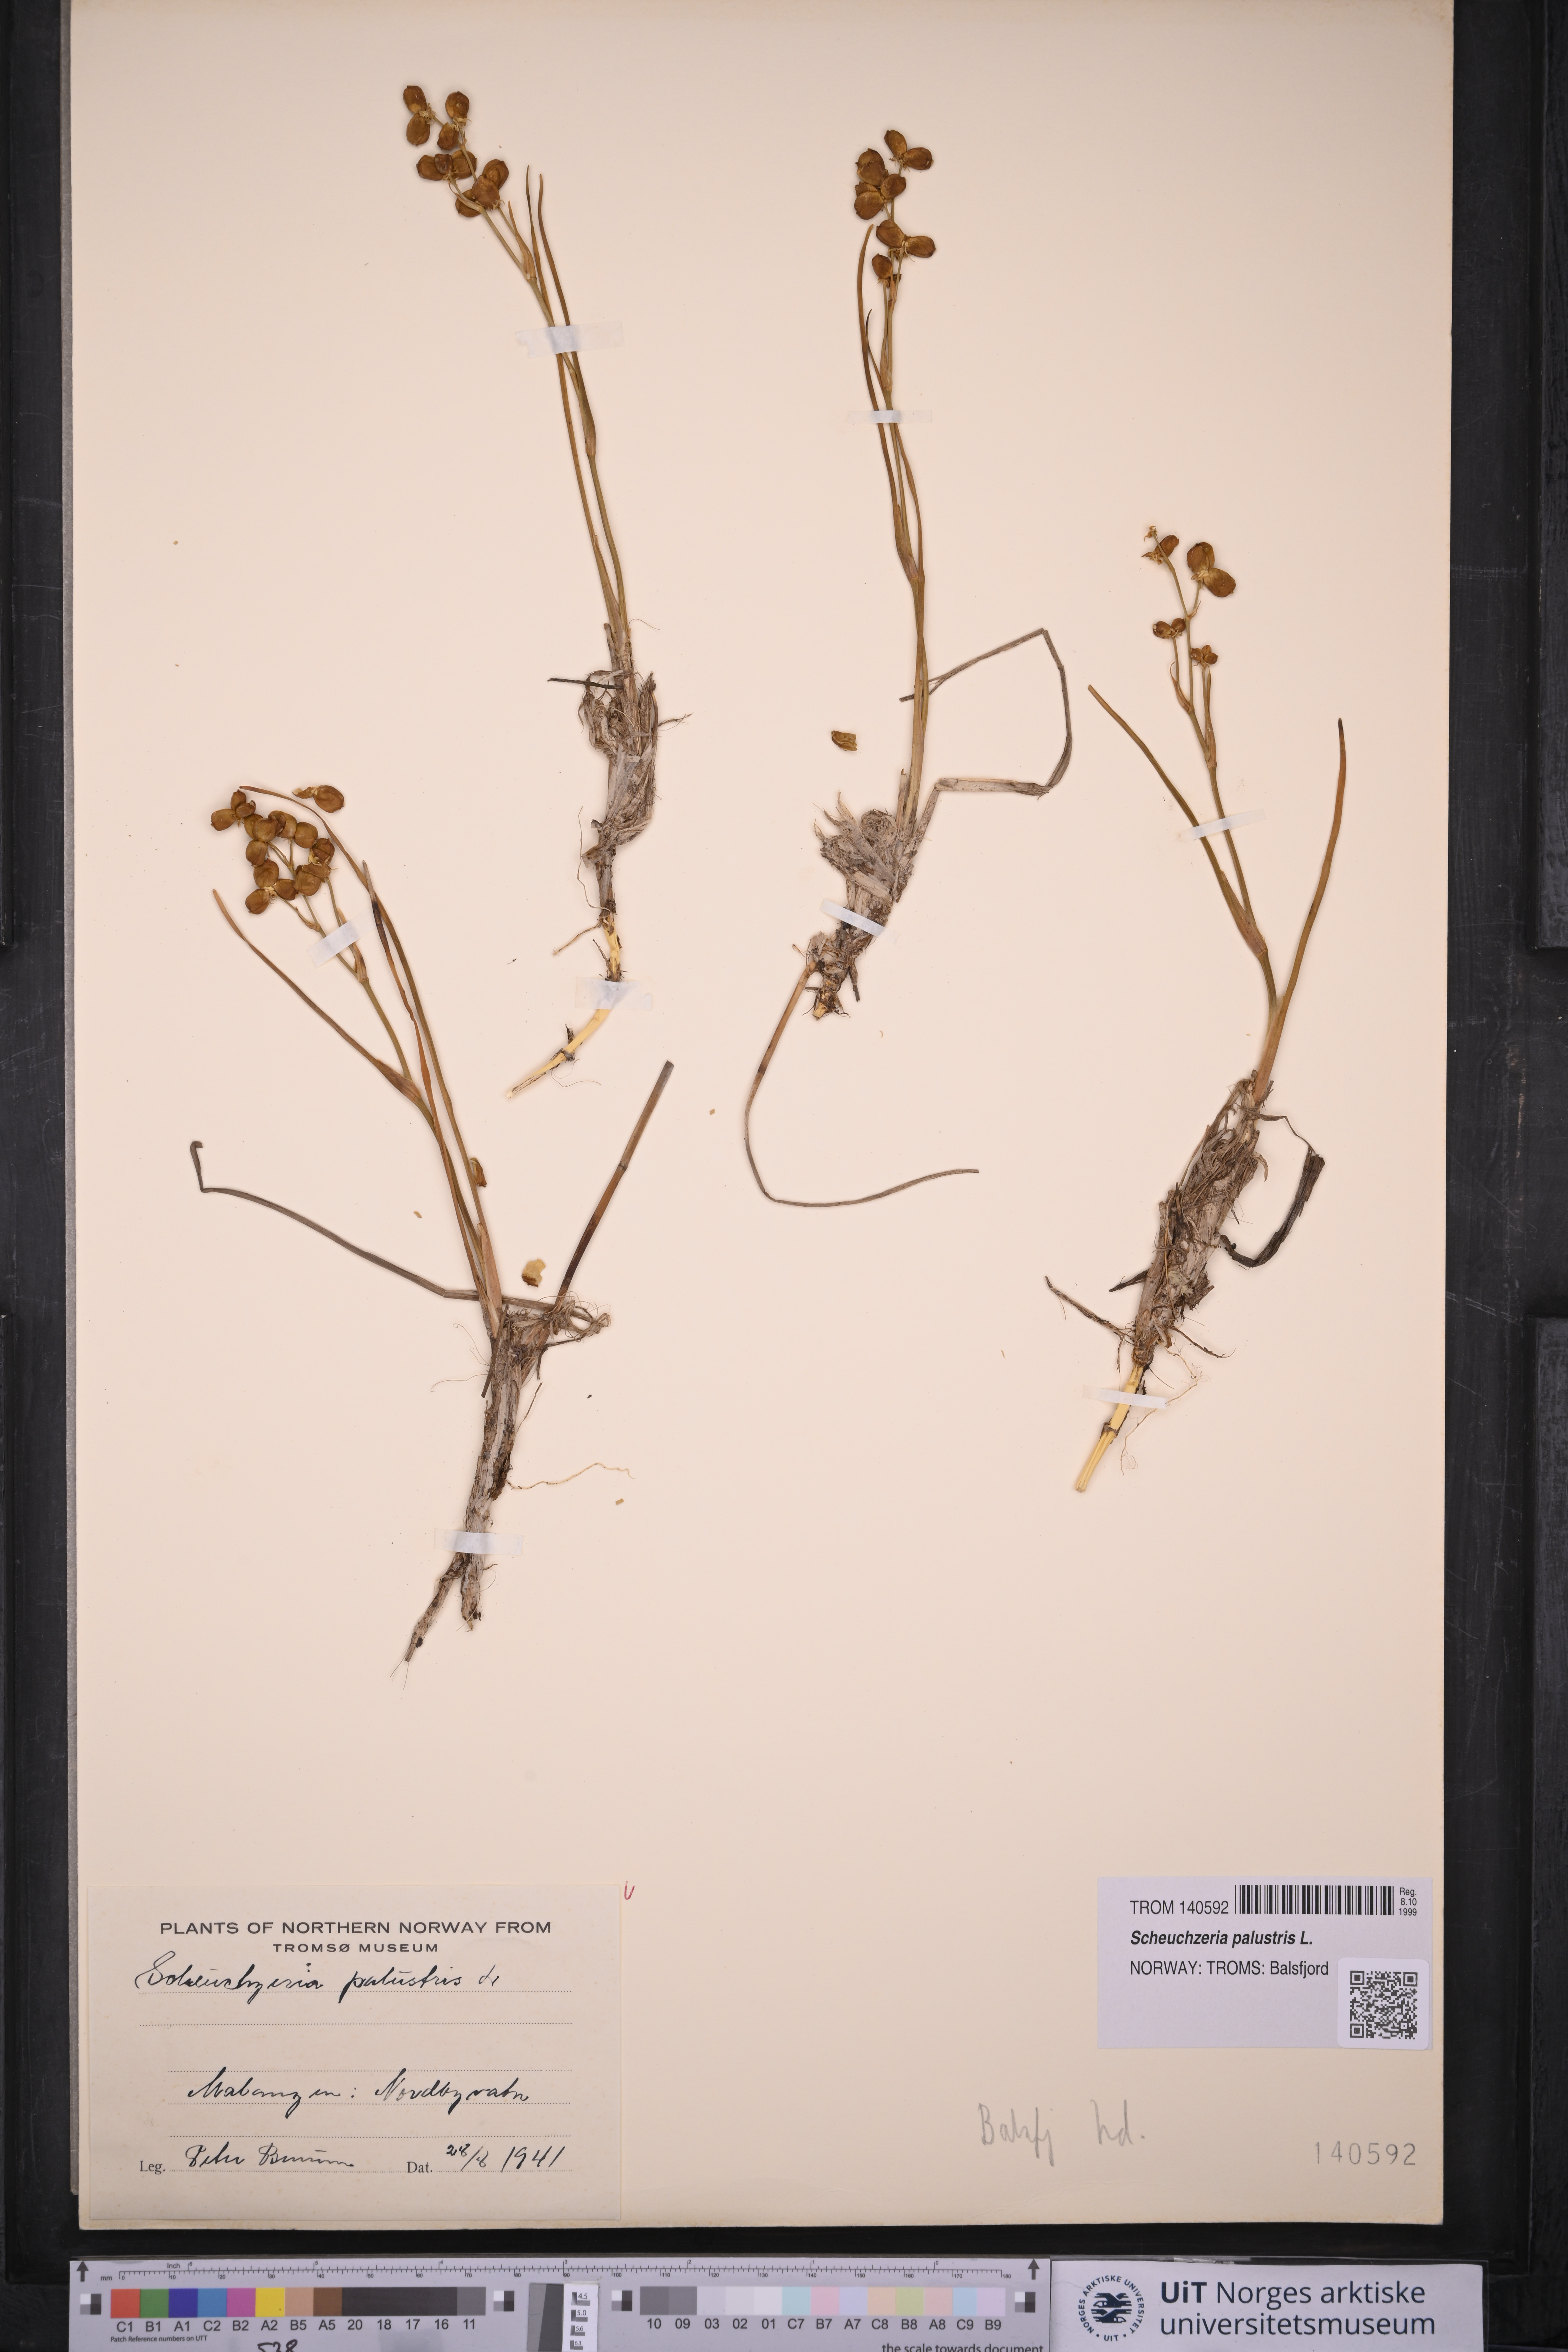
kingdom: Plantae
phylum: Tracheophyta
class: Liliopsida
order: Alismatales
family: Scheuchzeriaceae
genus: Scheuchzeria
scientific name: Scheuchzeria palustris
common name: Rannoch-rush
